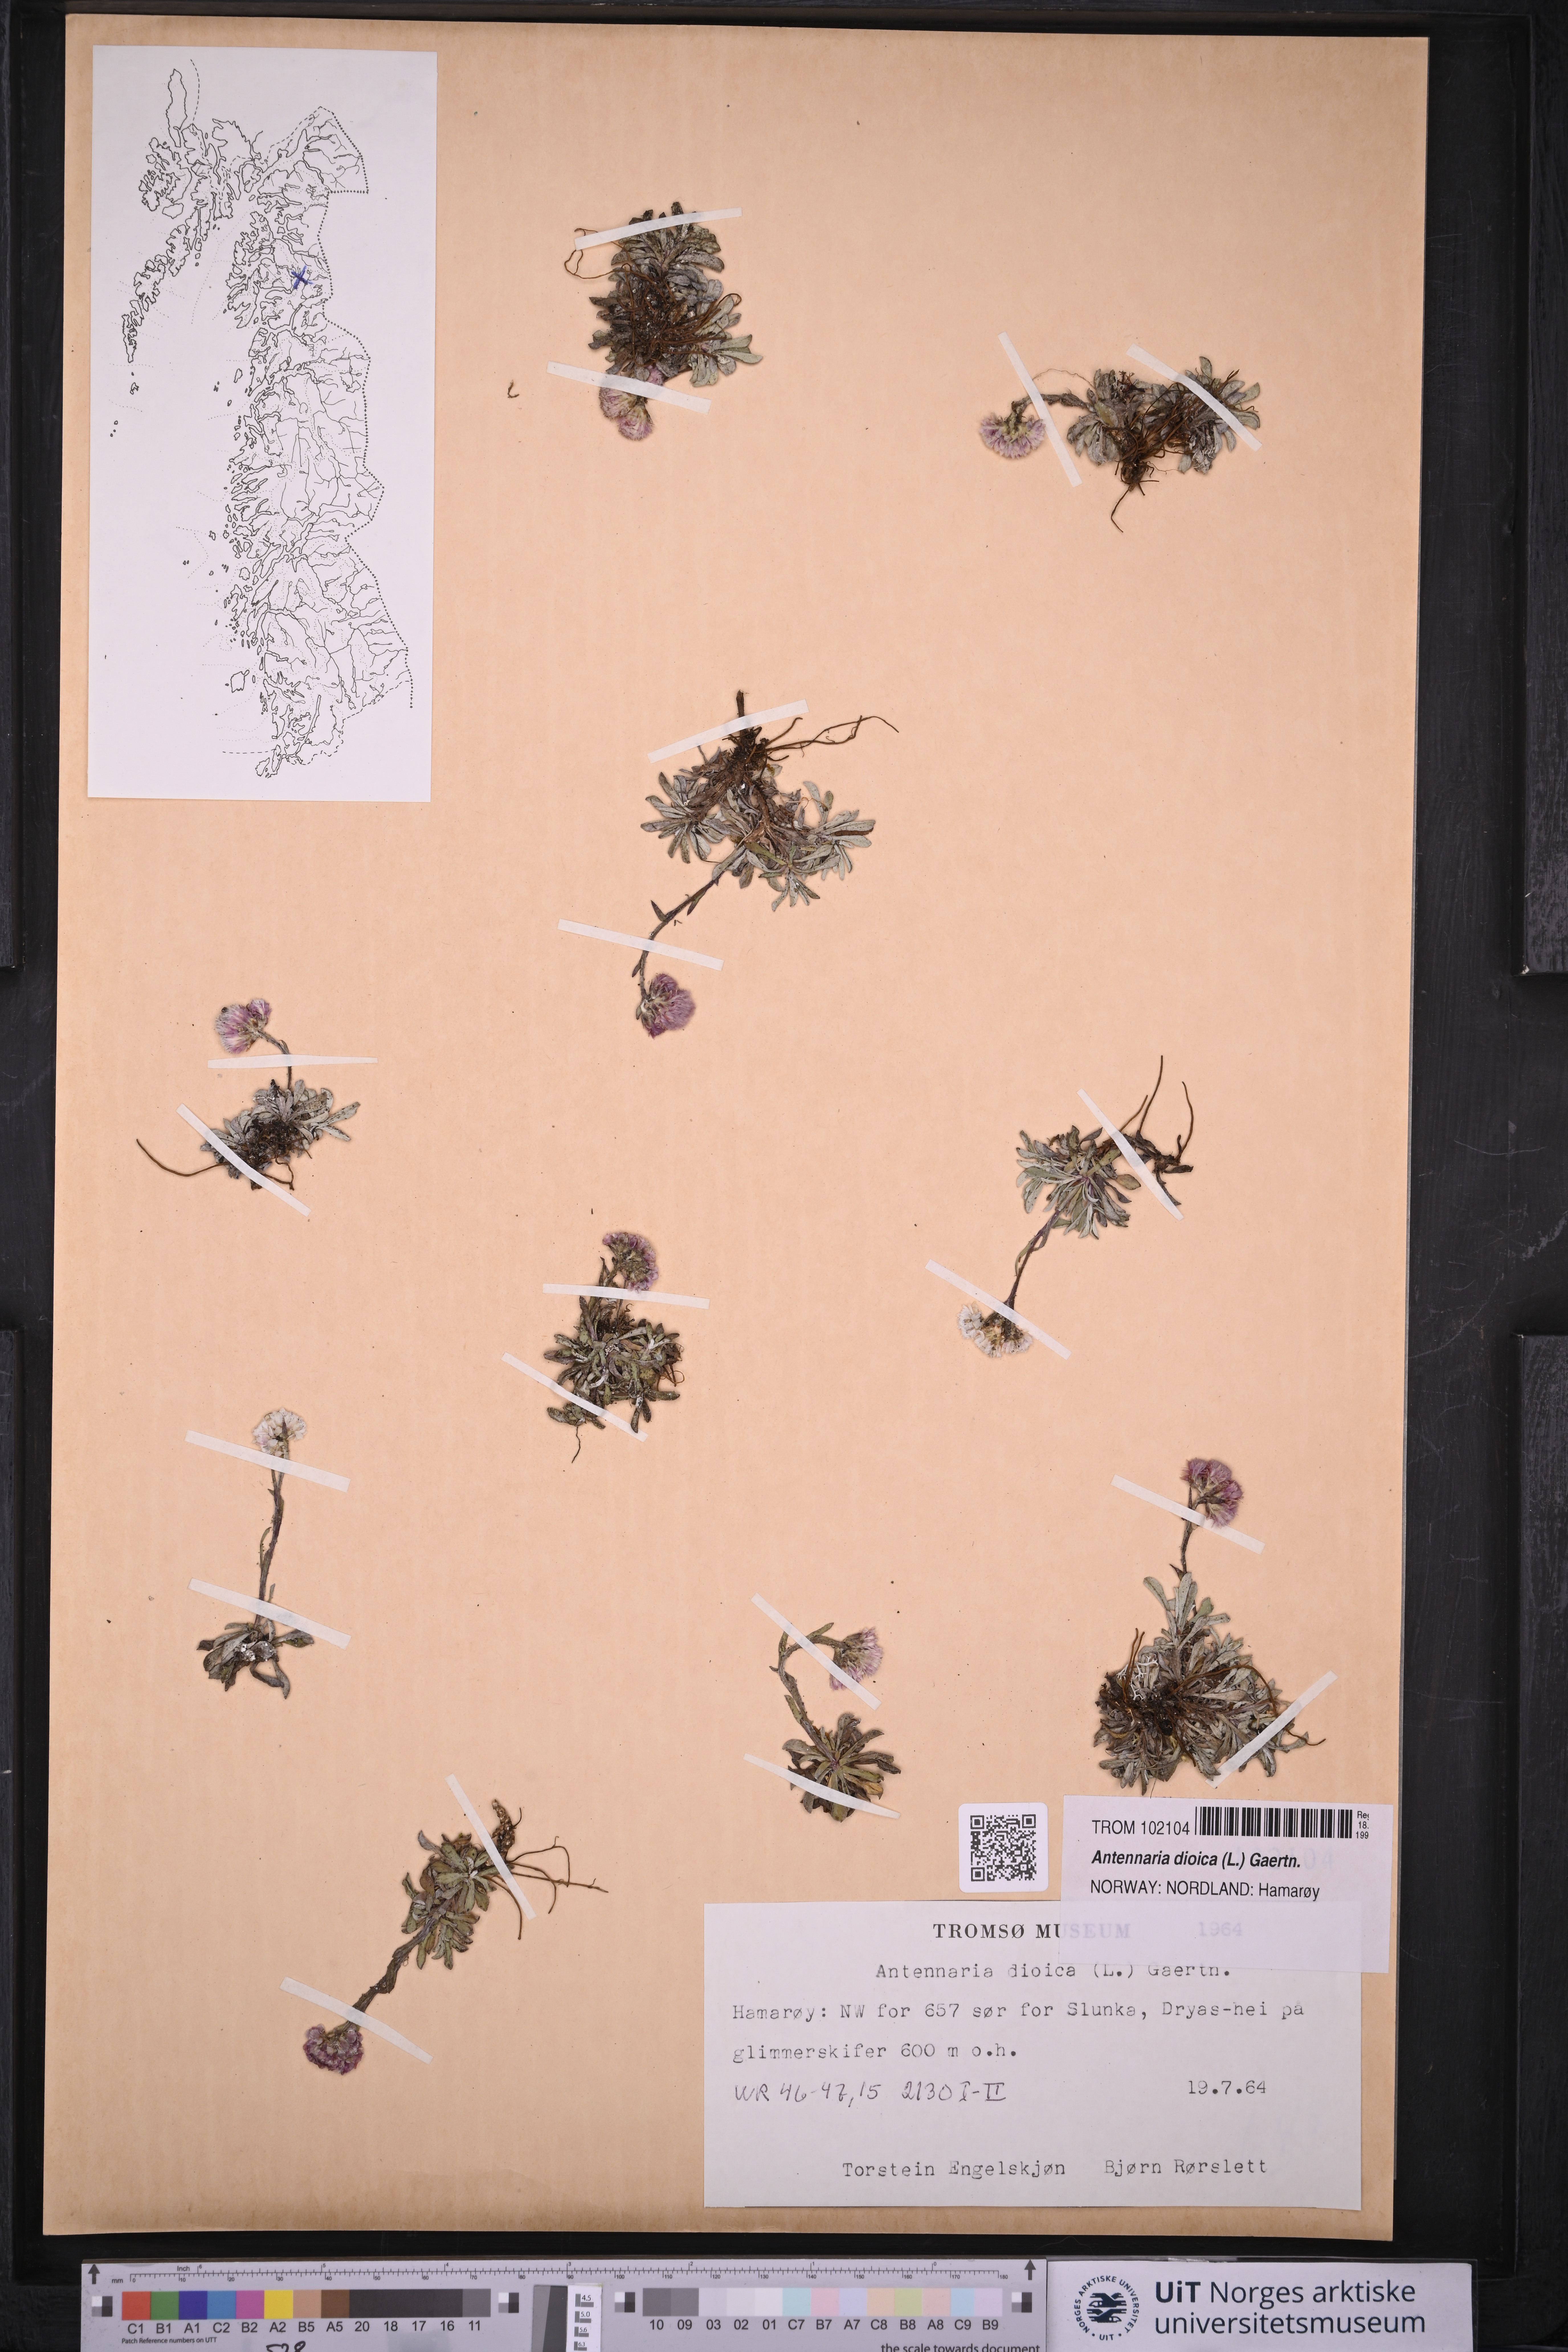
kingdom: Plantae
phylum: Tracheophyta
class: Magnoliopsida
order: Asterales
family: Asteraceae
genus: Antennaria
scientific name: Antennaria dioica
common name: Mountain everlasting
